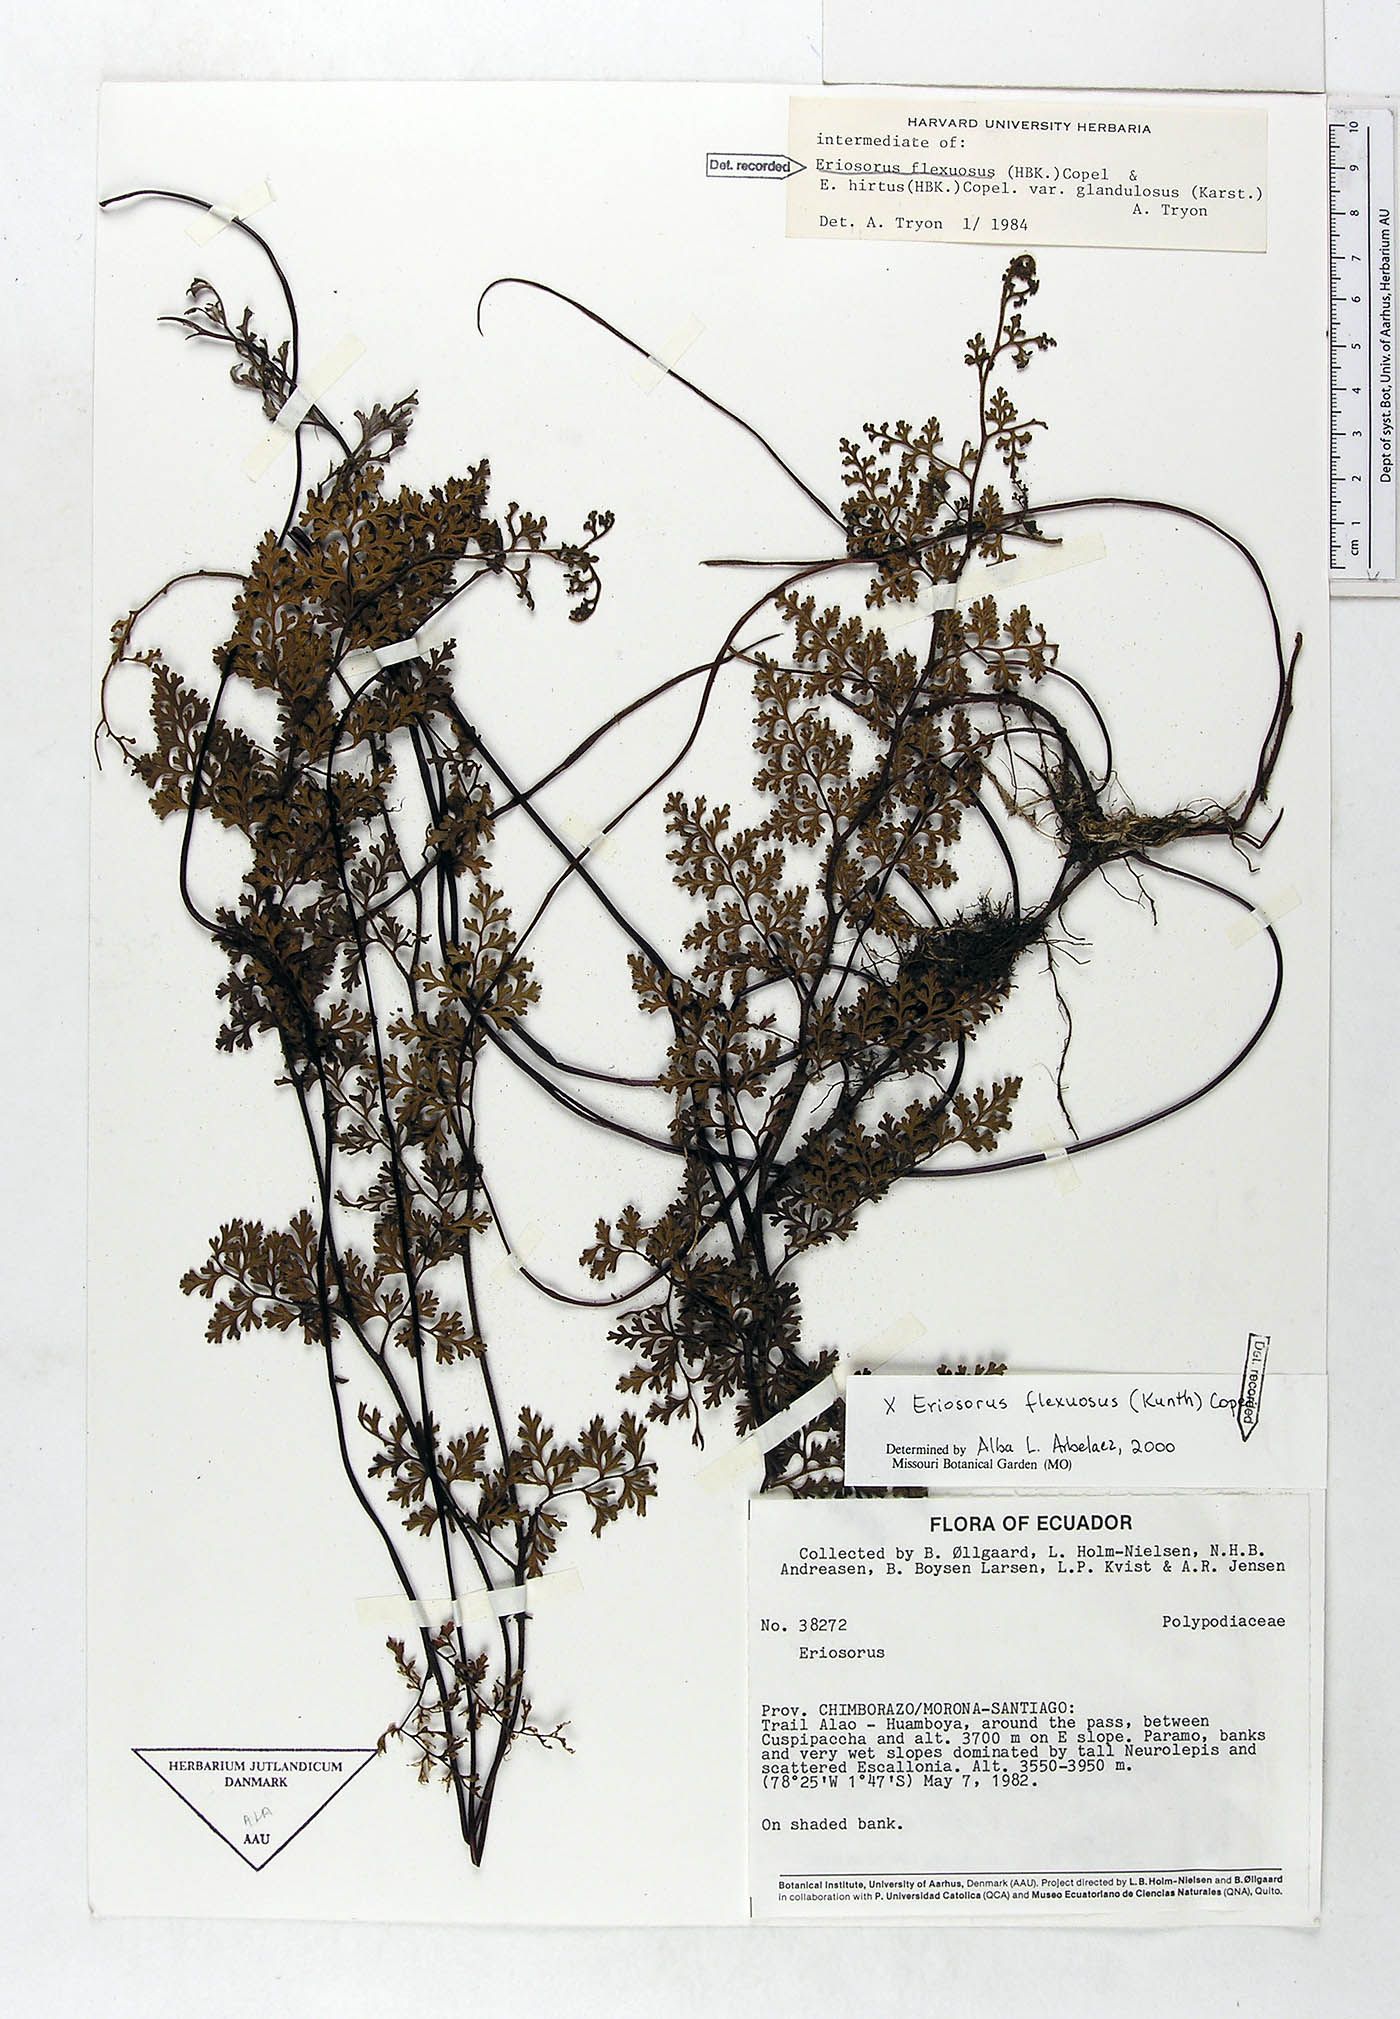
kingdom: Plantae
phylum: Tracheophyta
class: Polypodiopsida
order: Polypodiales
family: Pteridaceae
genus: Jamesonia
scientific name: Jamesonia flexuosa
